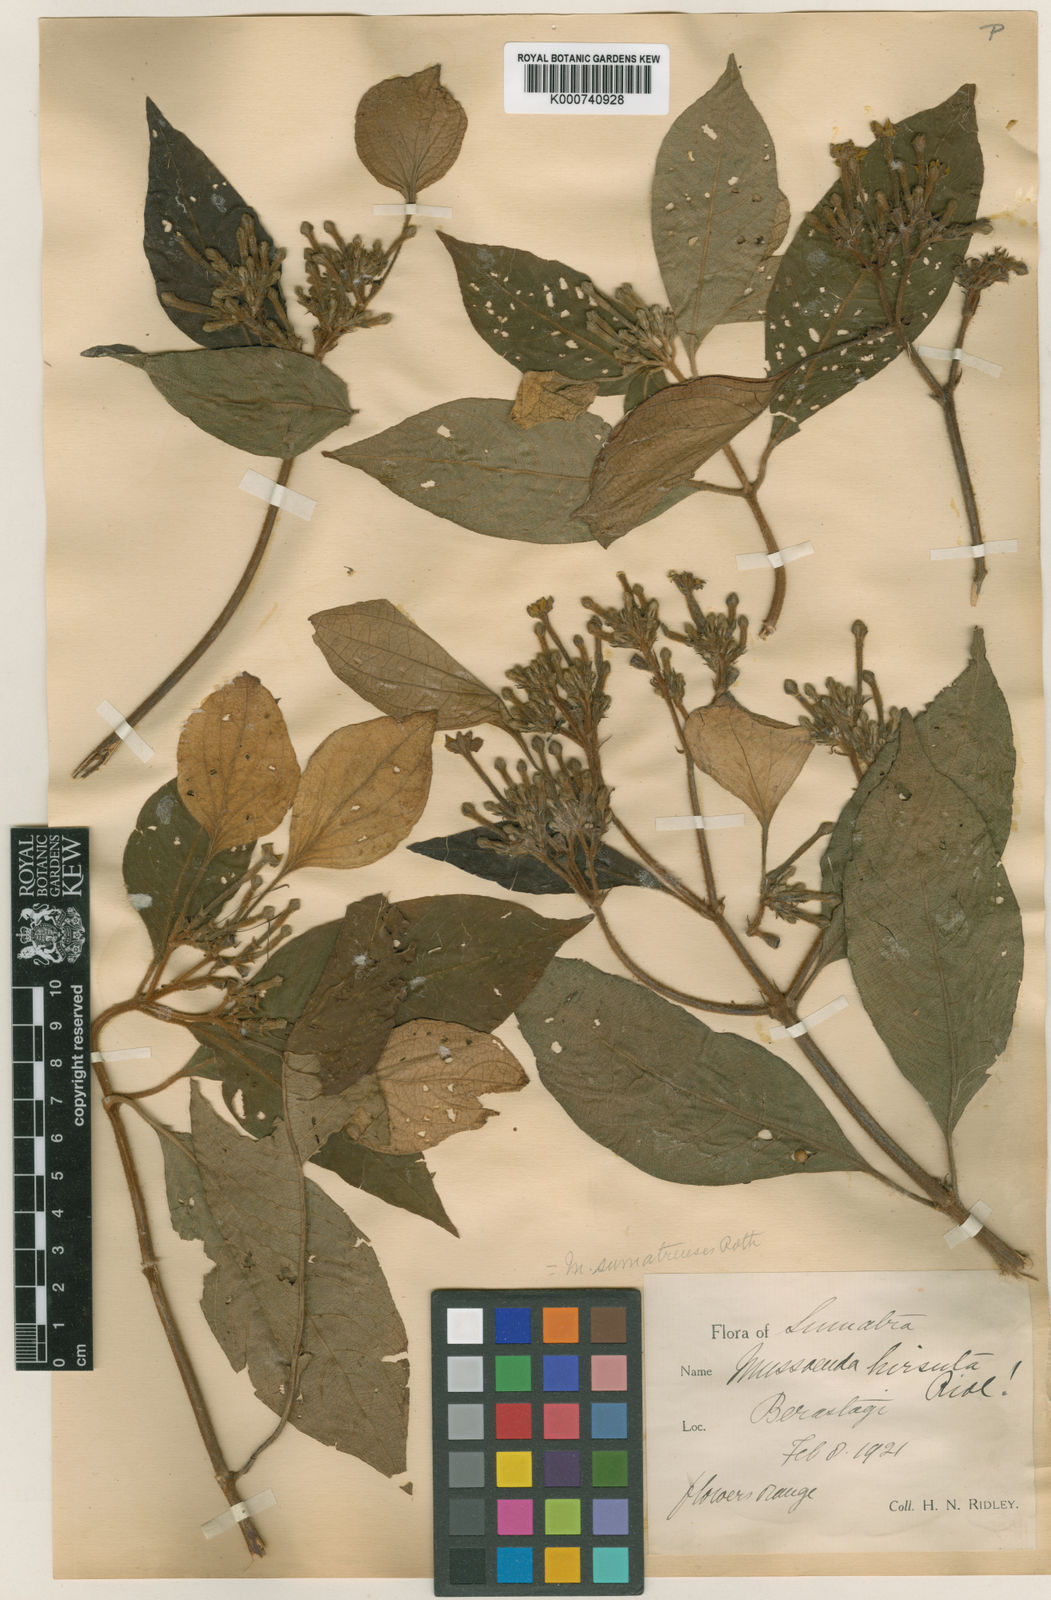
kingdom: Plantae
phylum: Tracheophyta
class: Magnoliopsida
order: Gentianales
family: Rubiaceae
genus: Mussaenda
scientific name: Mussaenda hirsuta
